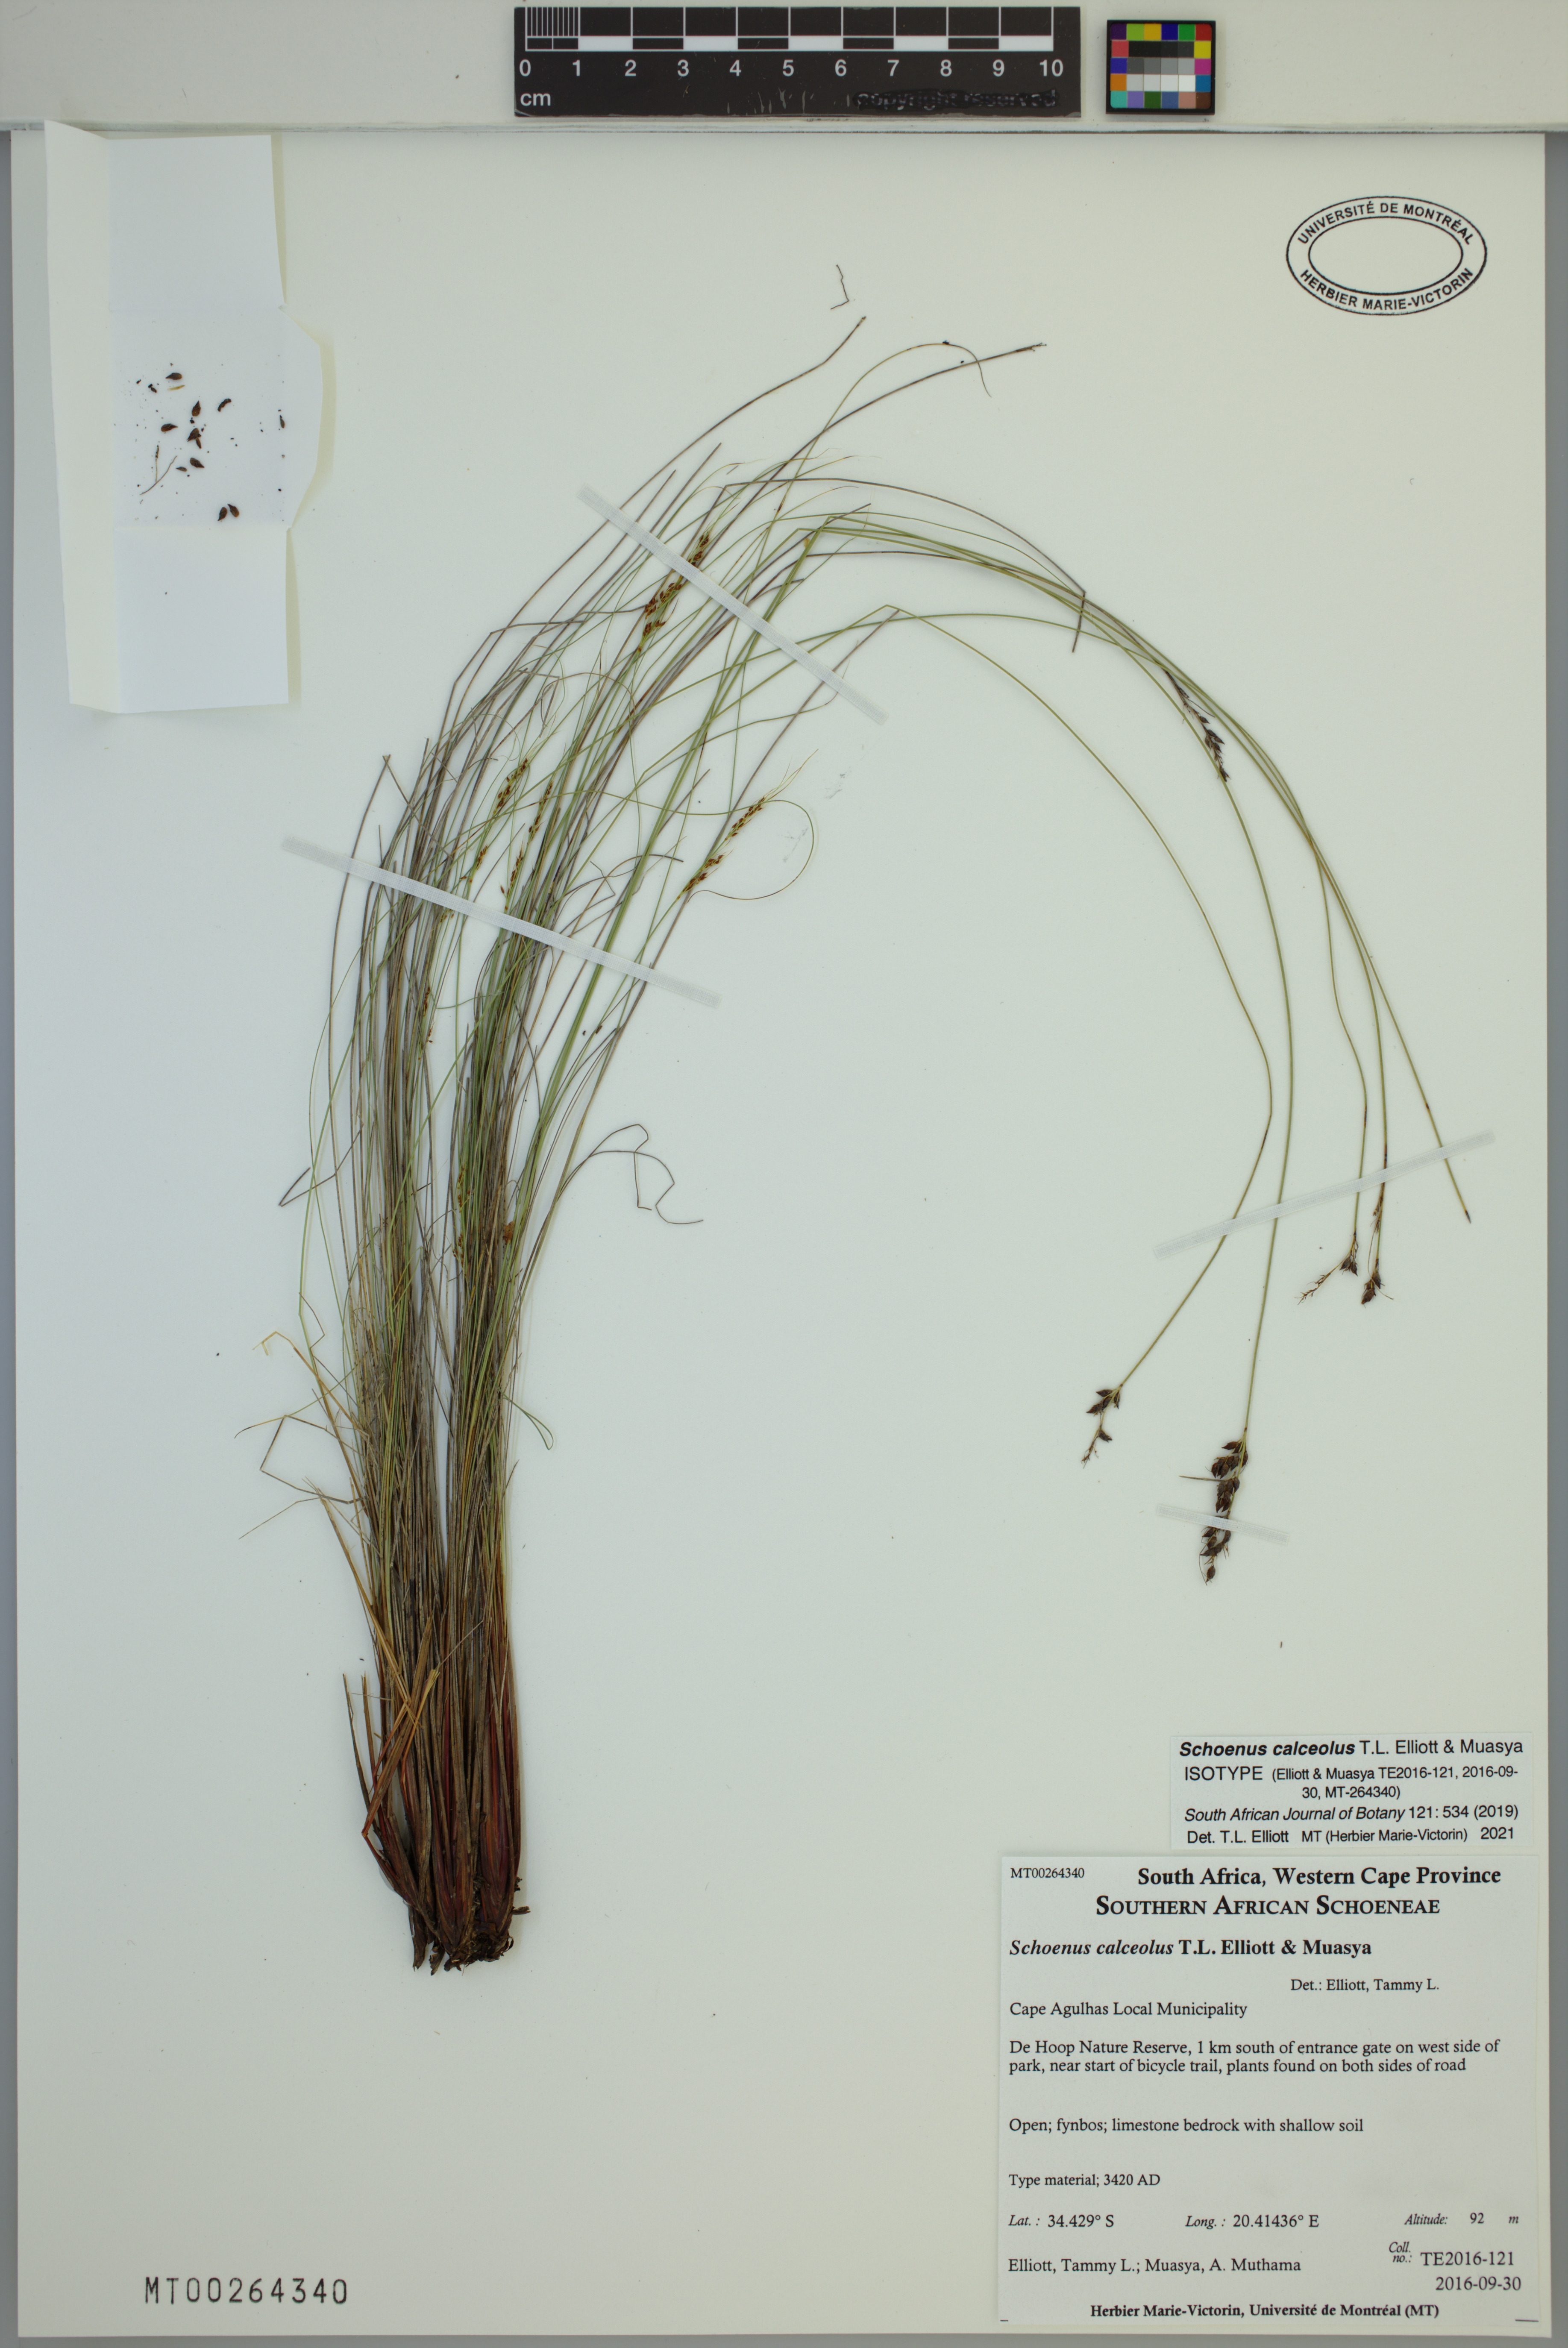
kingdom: Plantae
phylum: Tracheophyta
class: Liliopsida
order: Poales
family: Cyperaceae
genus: Schoenus
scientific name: Schoenus calceolus
